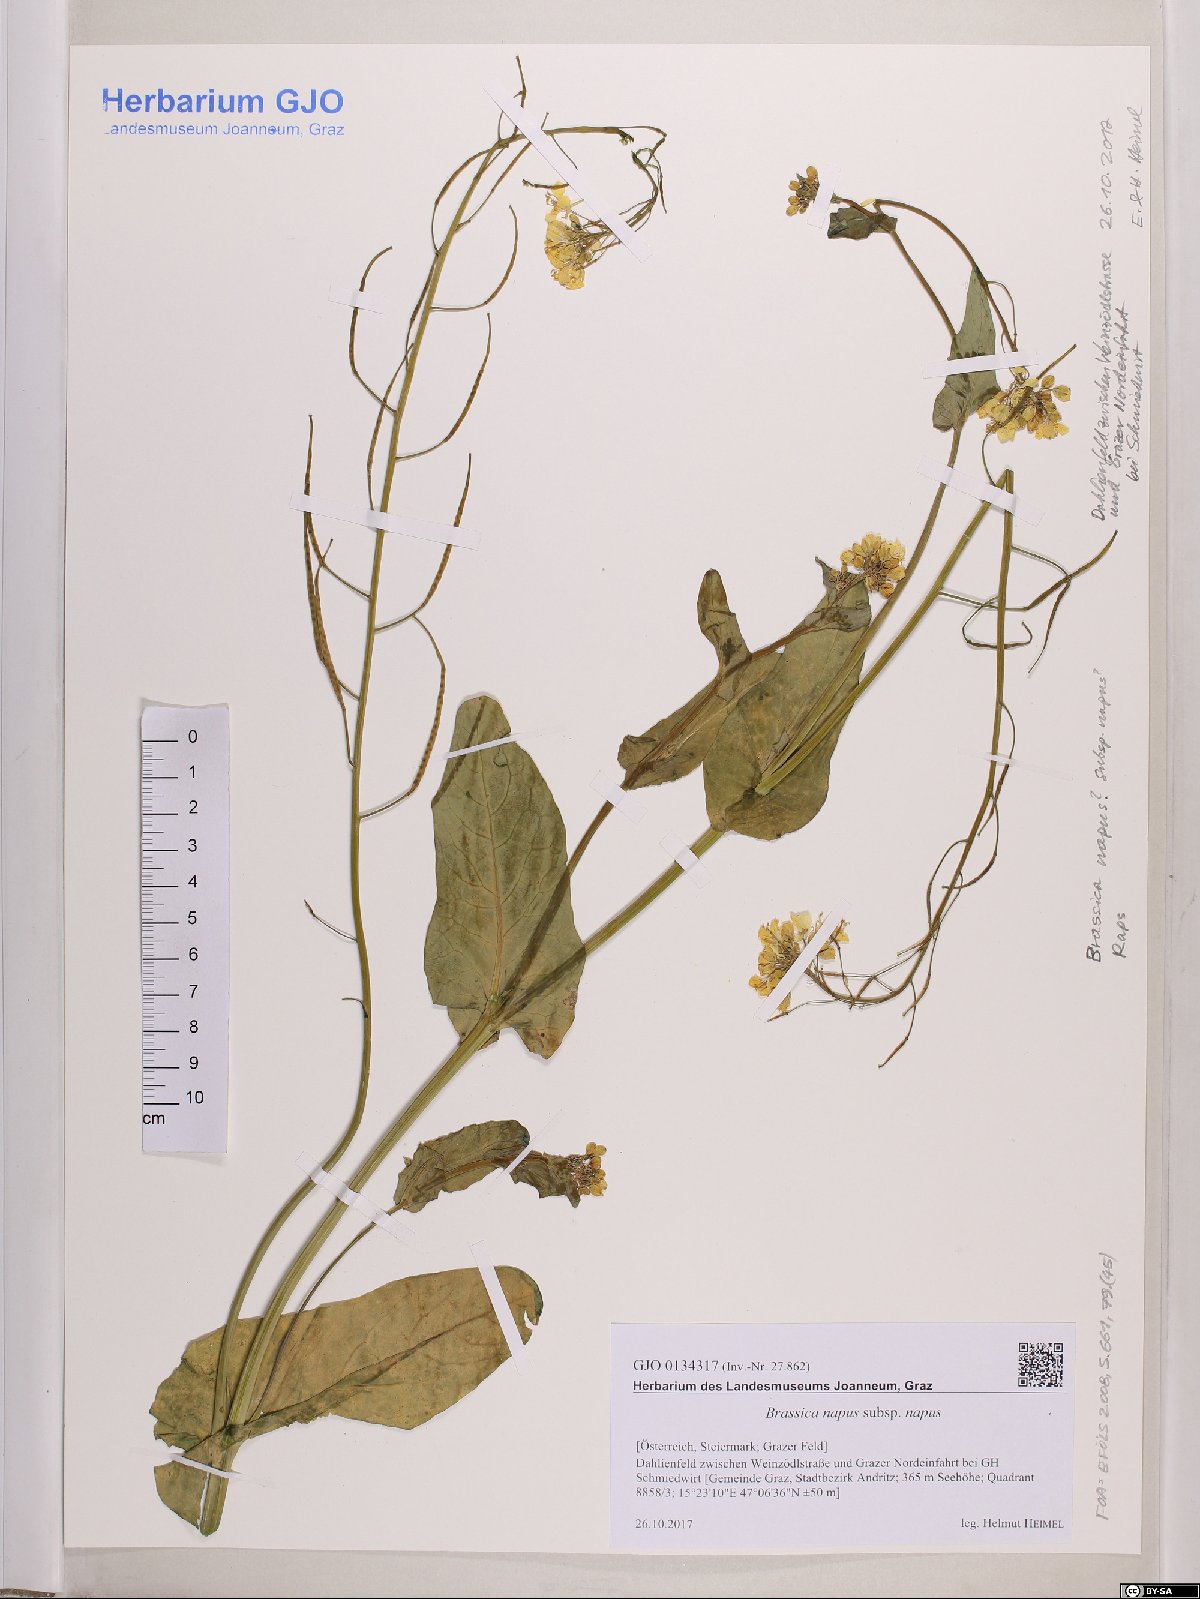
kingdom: Plantae
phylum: Tracheophyta
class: Magnoliopsida
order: Brassicales
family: Brassicaceae
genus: Brassica
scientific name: Brassica napus
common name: Rape
